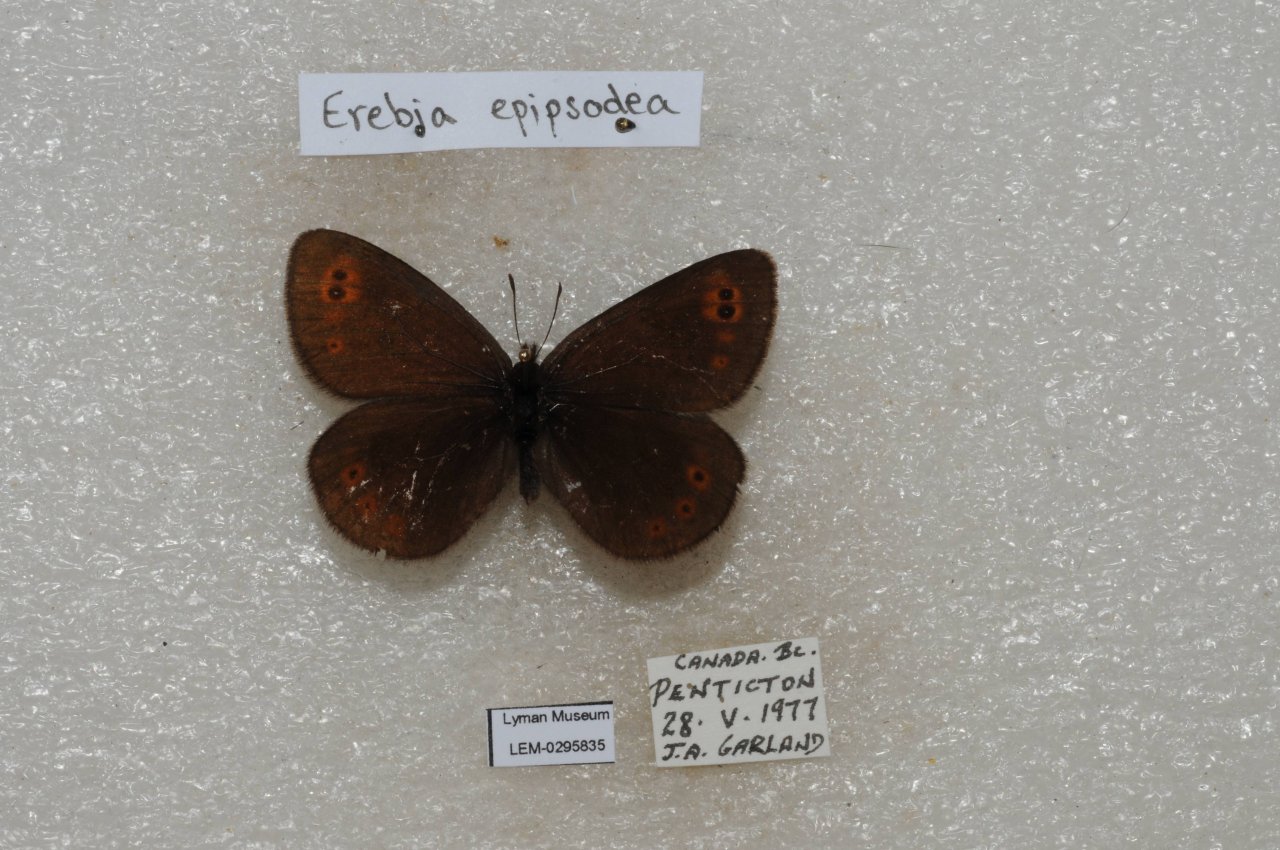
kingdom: Animalia
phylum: Arthropoda
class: Insecta
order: Lepidoptera
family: Nymphalidae
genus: Erebia
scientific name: Erebia epipsodea
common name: Common Alpine
